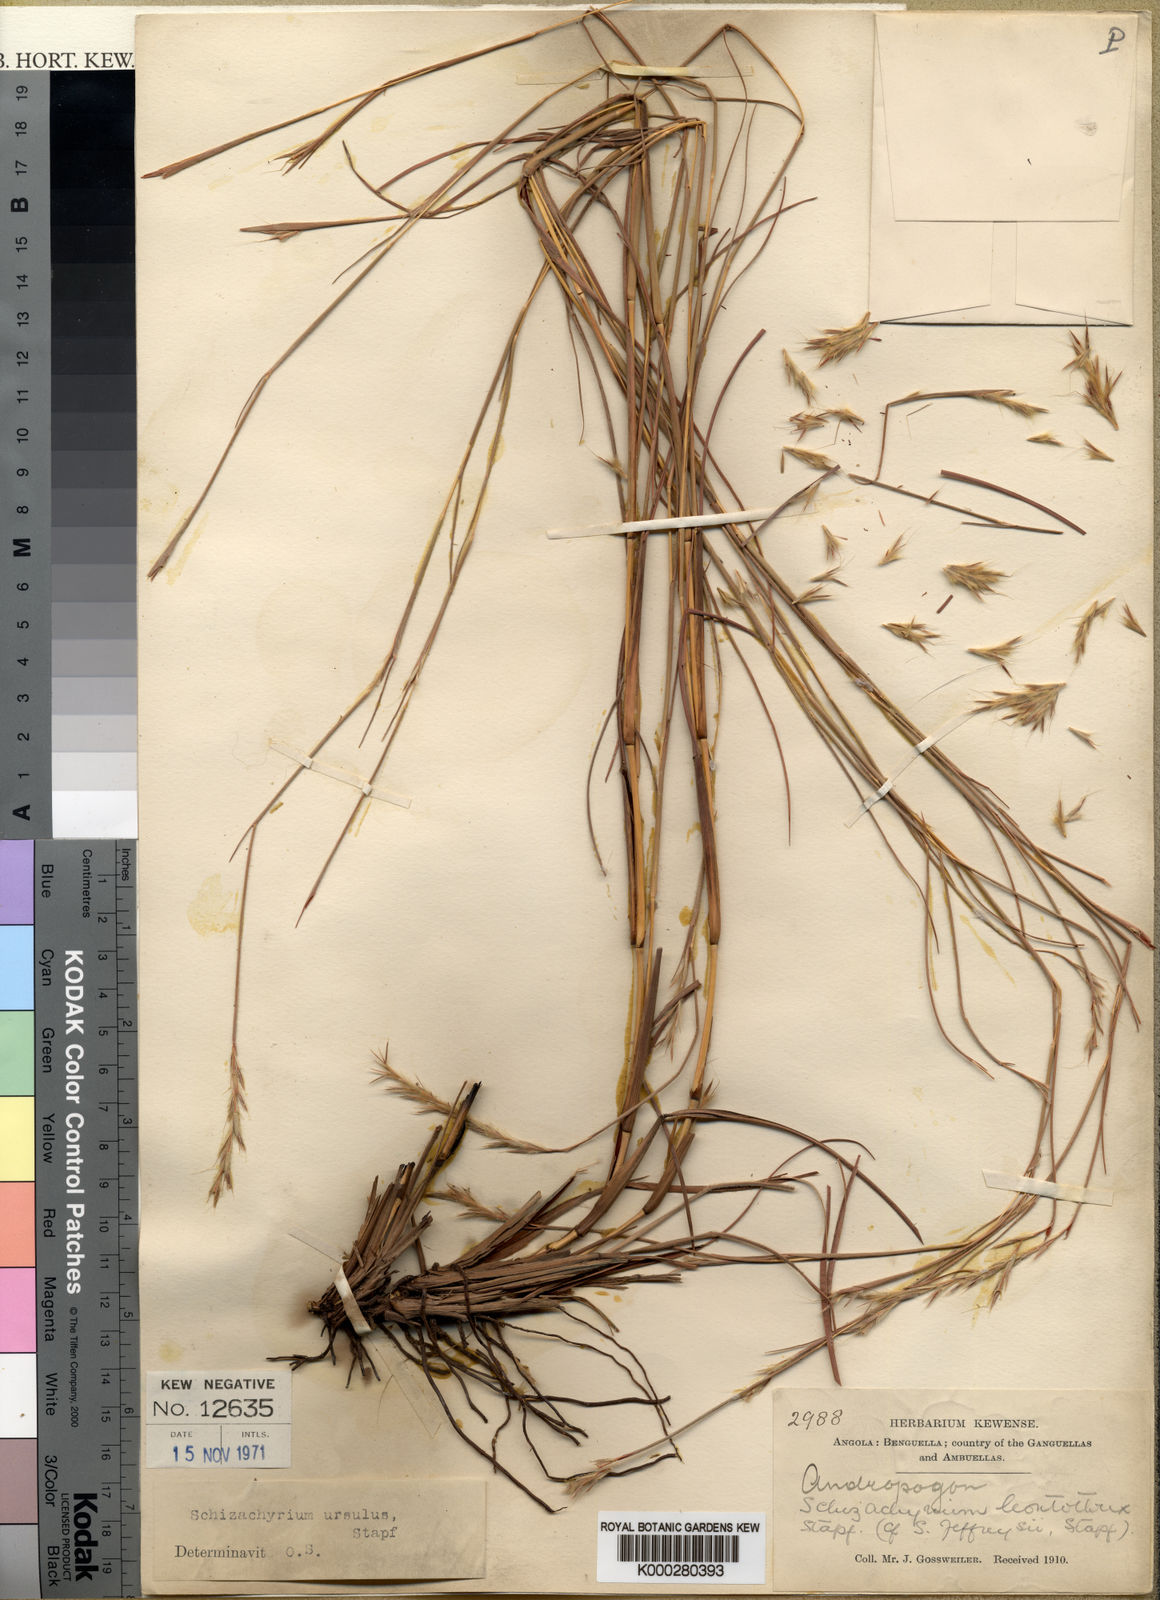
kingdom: Plantae
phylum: Tracheophyta
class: Liliopsida
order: Poales
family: Poaceae
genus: Schizachyrium
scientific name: Schizachyrium jeffreysii
